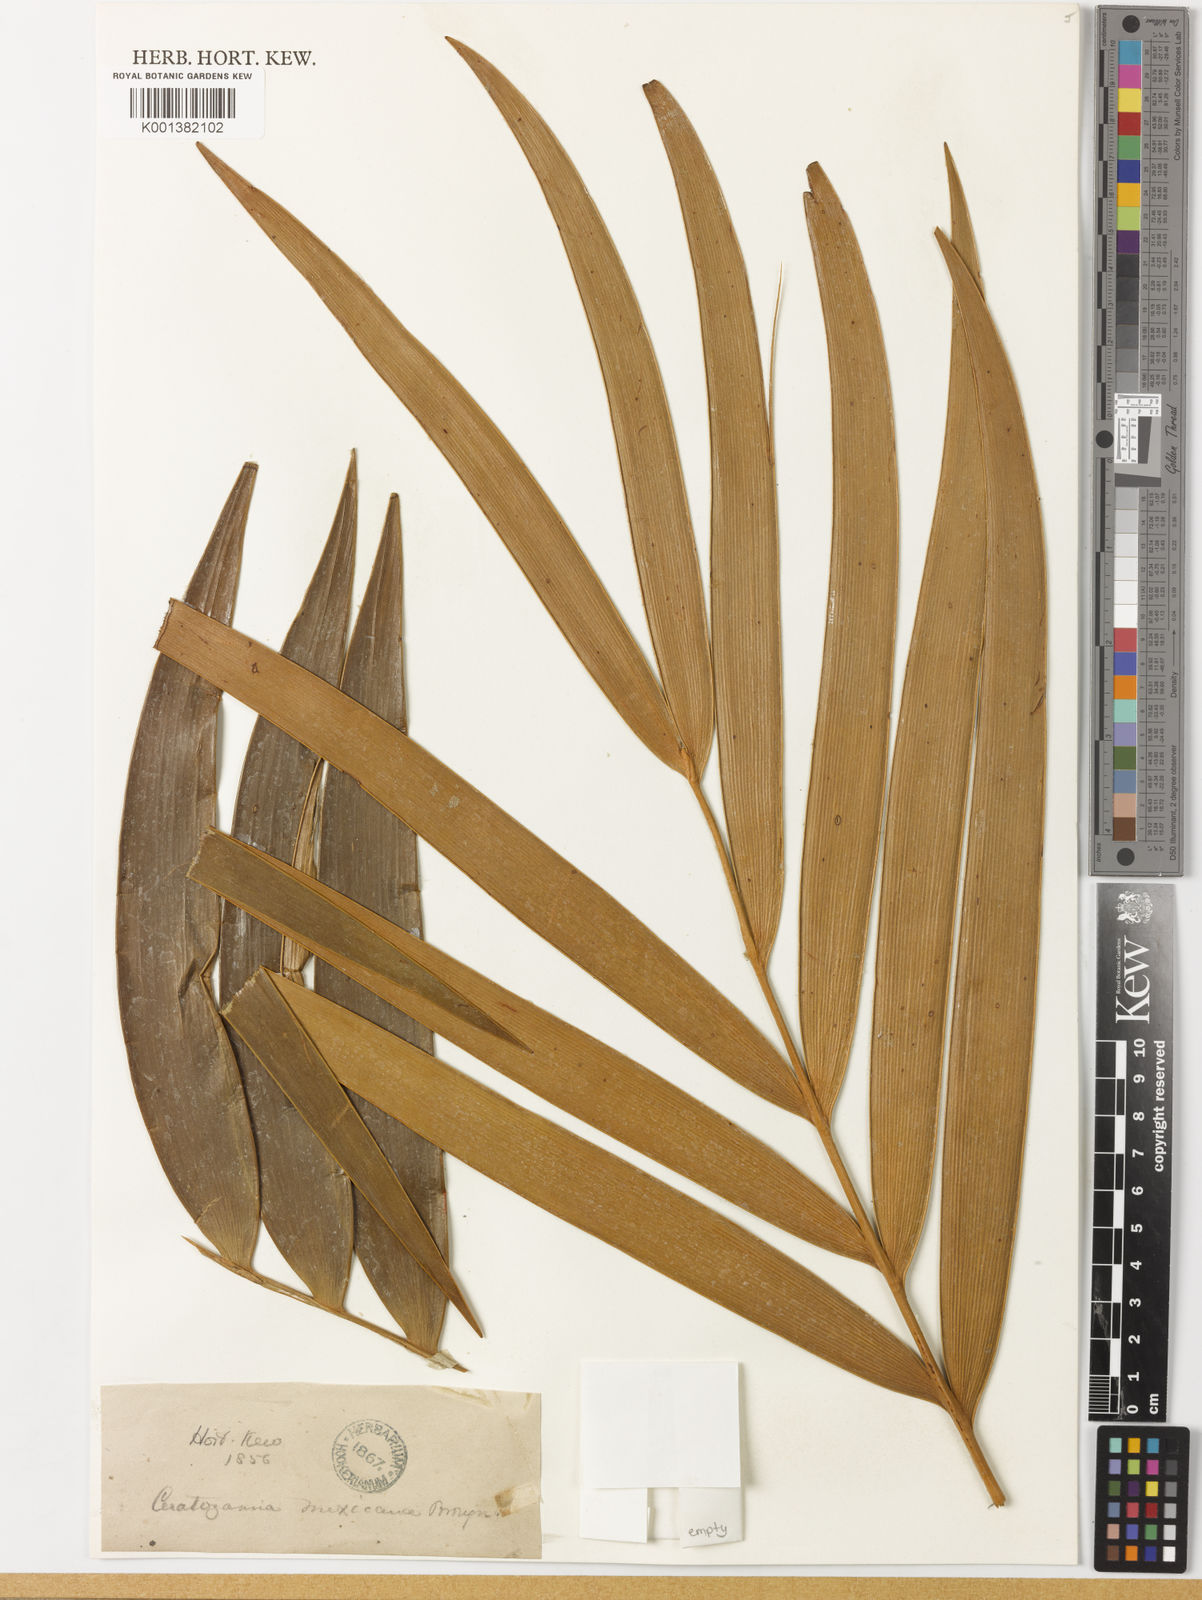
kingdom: Plantae
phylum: Tracheophyta
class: Cycadopsida
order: Cycadales
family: Zamiaceae
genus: Ceratozamia
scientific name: Ceratozamia mexicana
